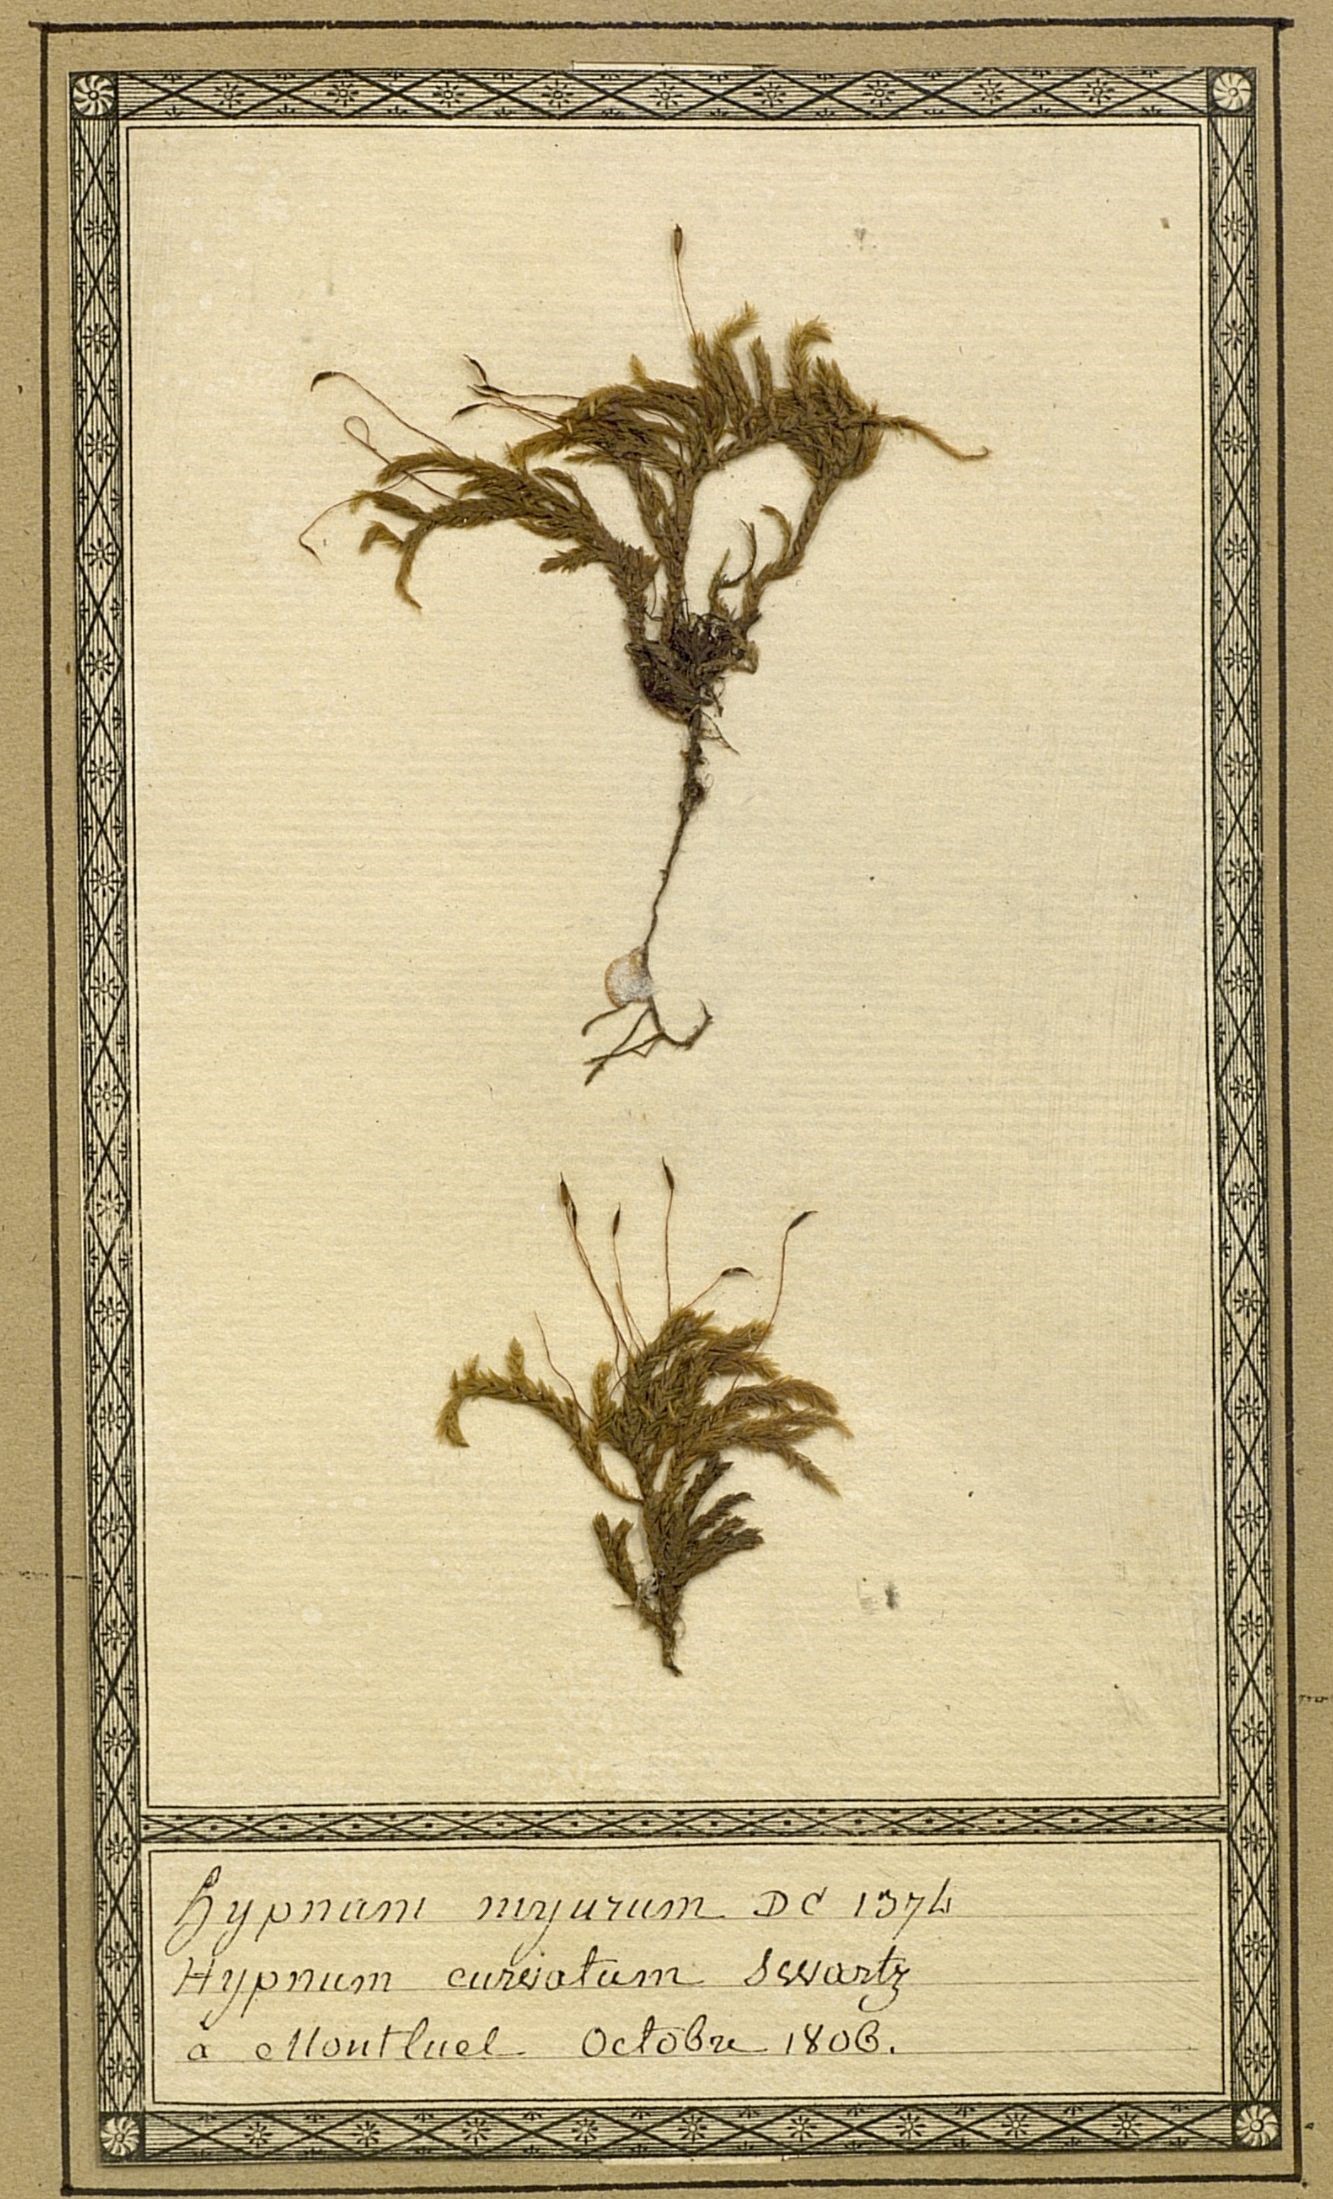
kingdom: Plantae
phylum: Bryophyta
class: Bryopsida
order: Hypnales
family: Lembophyllaceae
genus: Isothecium
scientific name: Isothecium alopecuroides
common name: Larger mouse-tail moss
